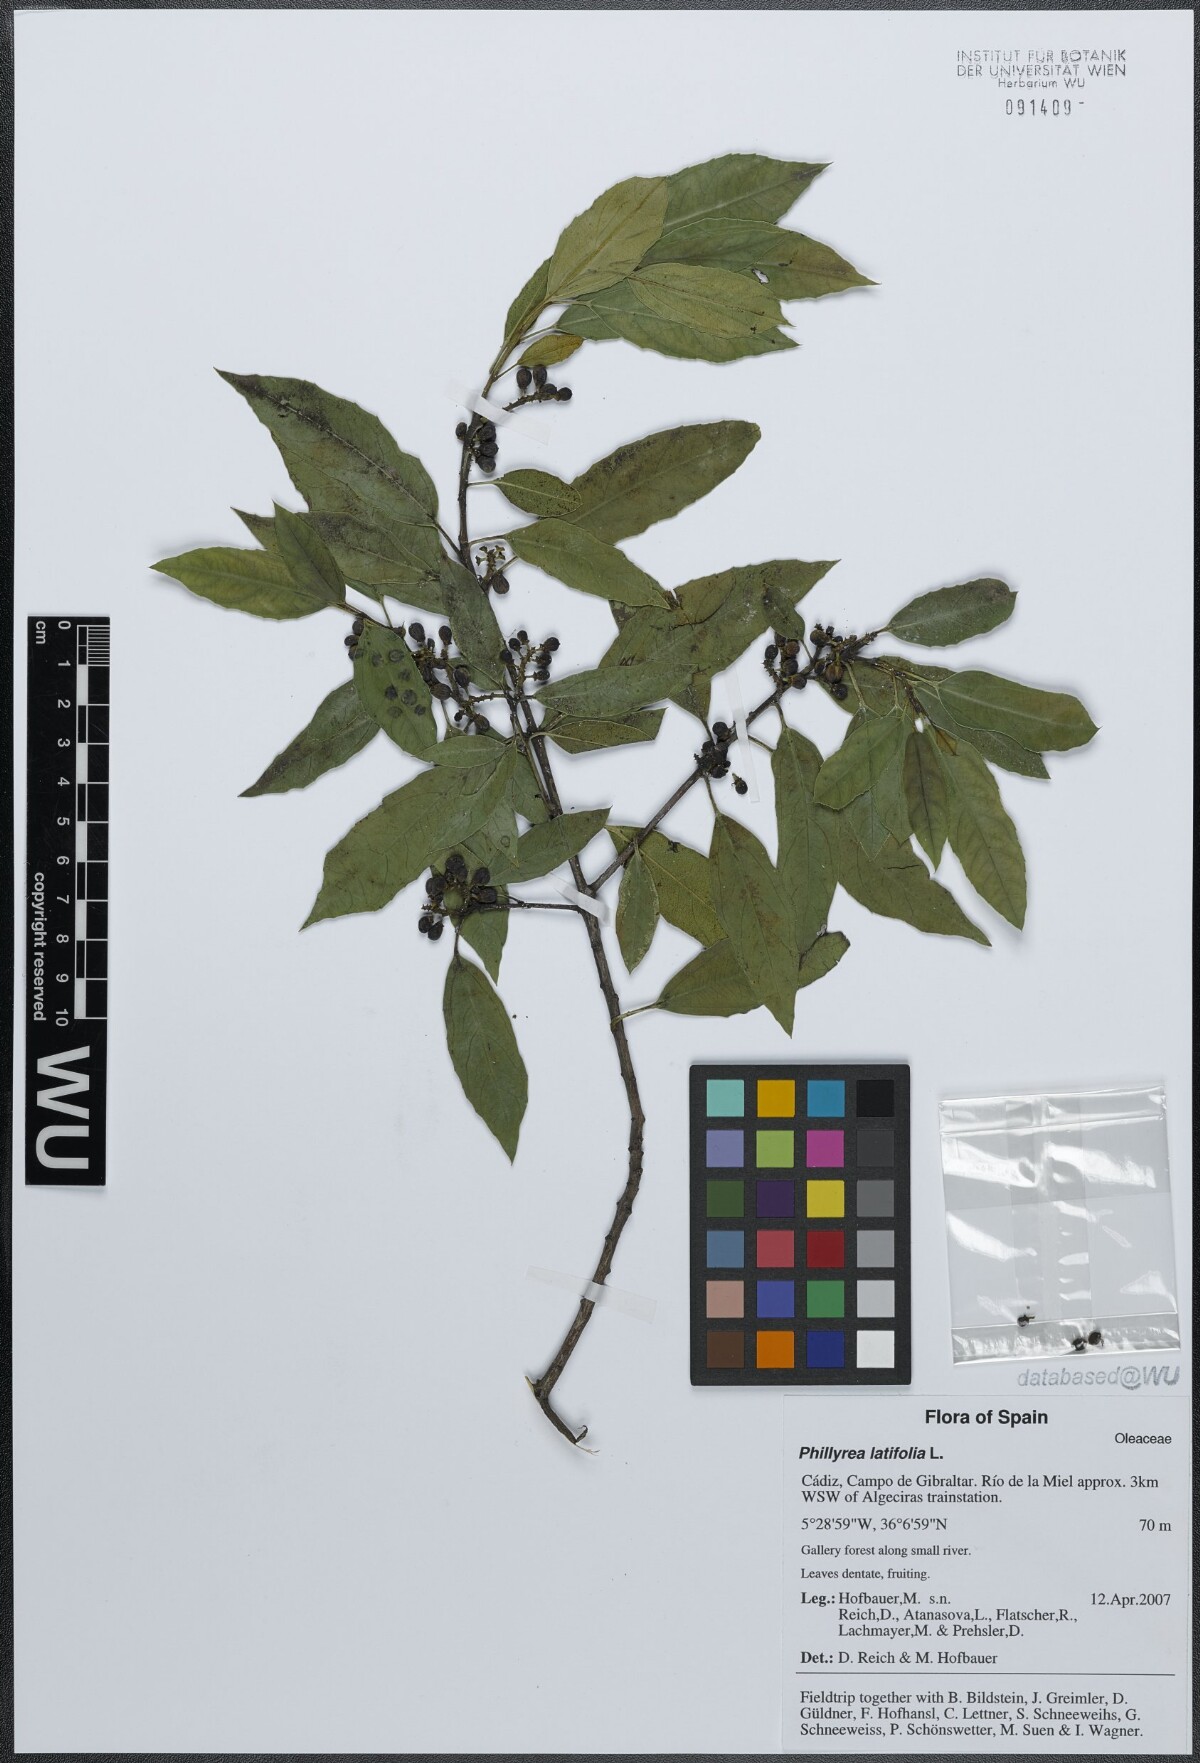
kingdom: Plantae
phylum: Tracheophyta
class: Magnoliopsida
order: Rosales
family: Rhamnaceae
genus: Rhamnus
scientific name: Rhamnus alaternus
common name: Mediterranean buckthorn
